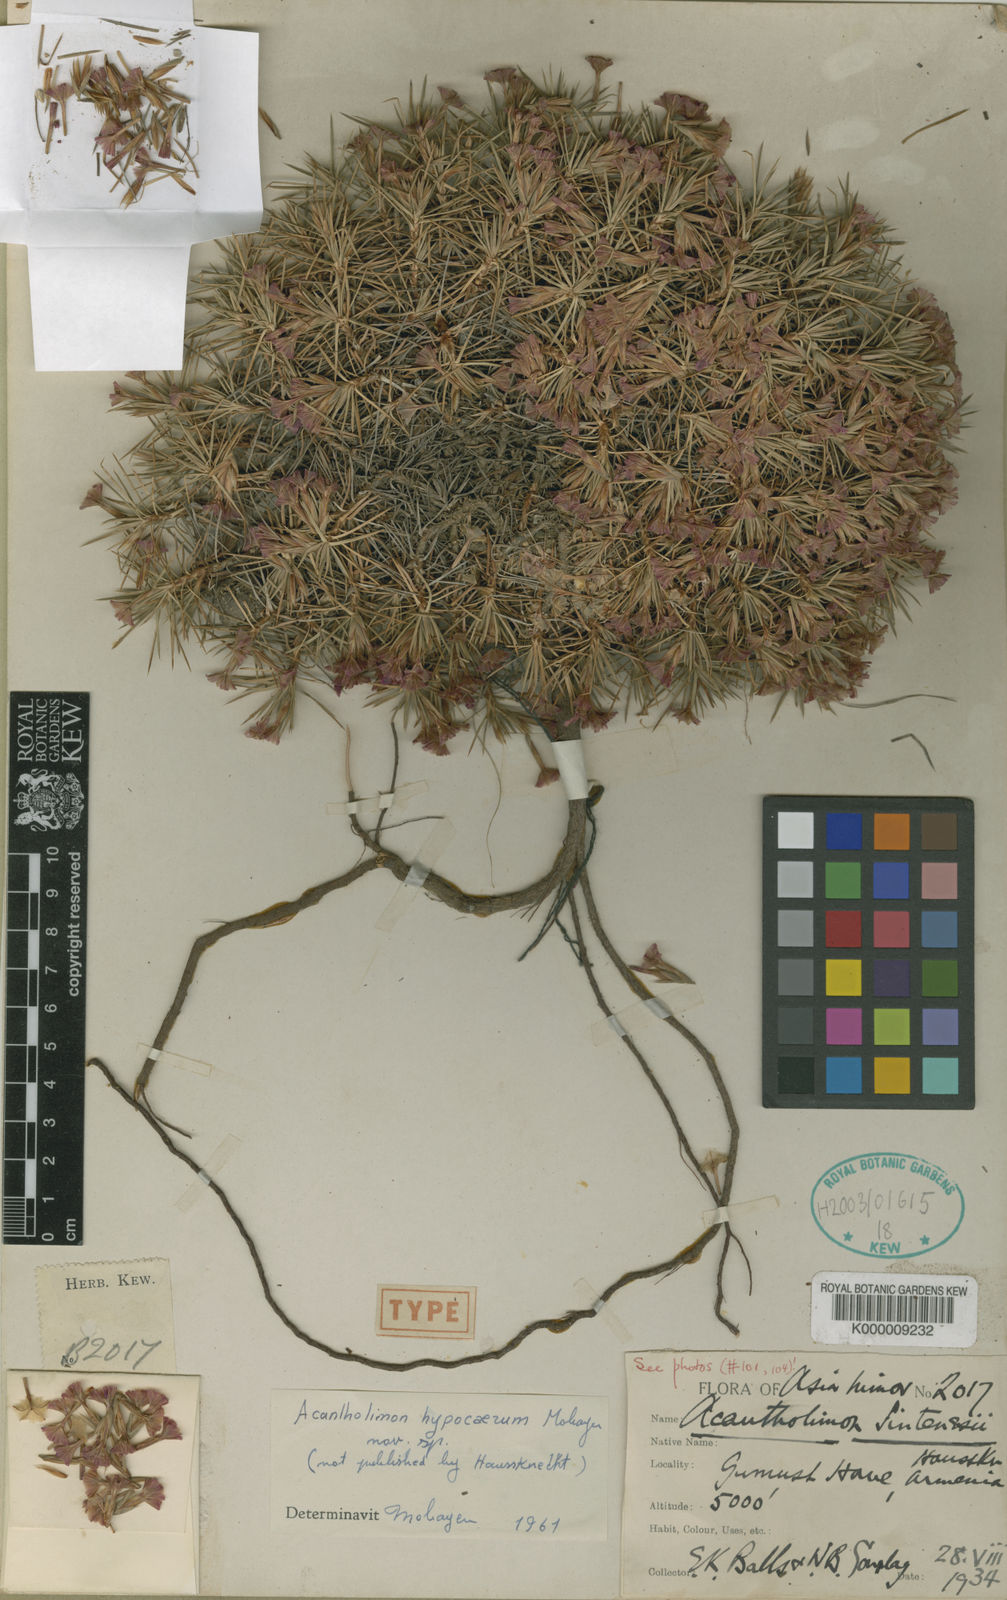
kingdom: Plantae
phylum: Tracheophyta
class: Magnoliopsida
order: Caryophyllales
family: Plumbaginaceae
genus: Acantholimon
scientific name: Acantholimon
